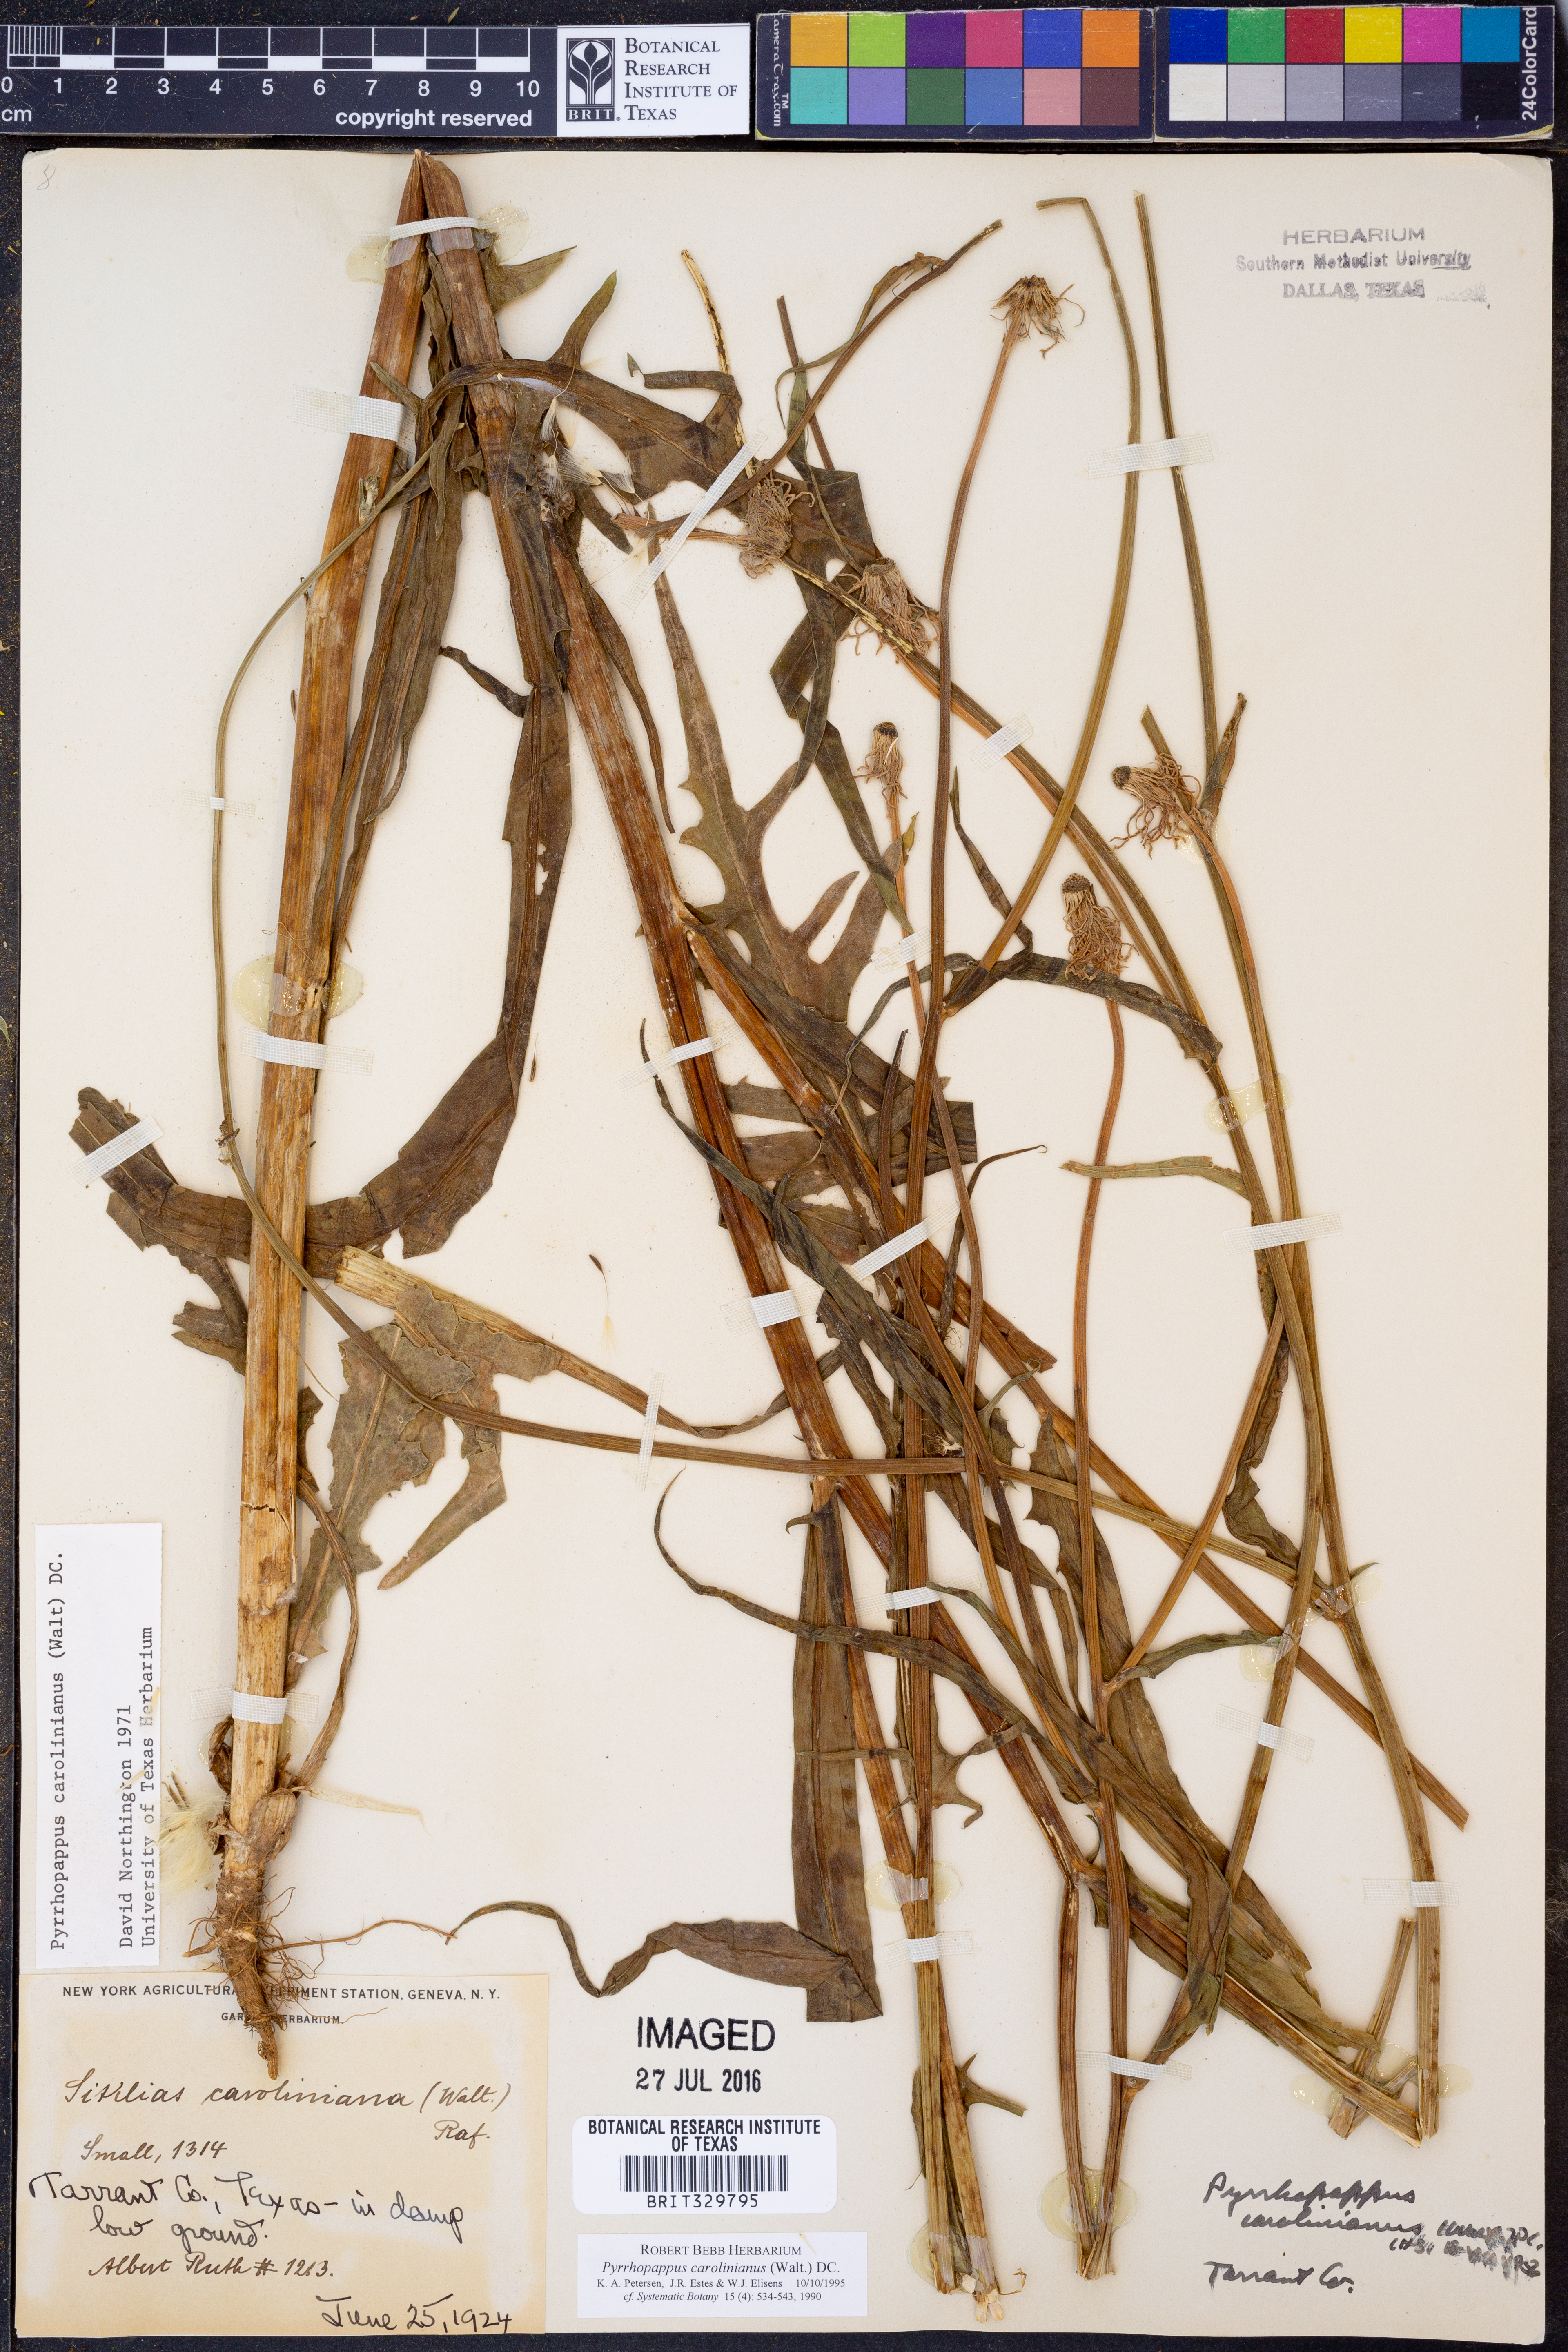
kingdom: Plantae
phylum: Tracheophyta
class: Magnoliopsida
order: Asterales
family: Asteraceae
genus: Pyrrhopappus
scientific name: Pyrrhopappus carolinianus
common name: Carolina desert-chicory
